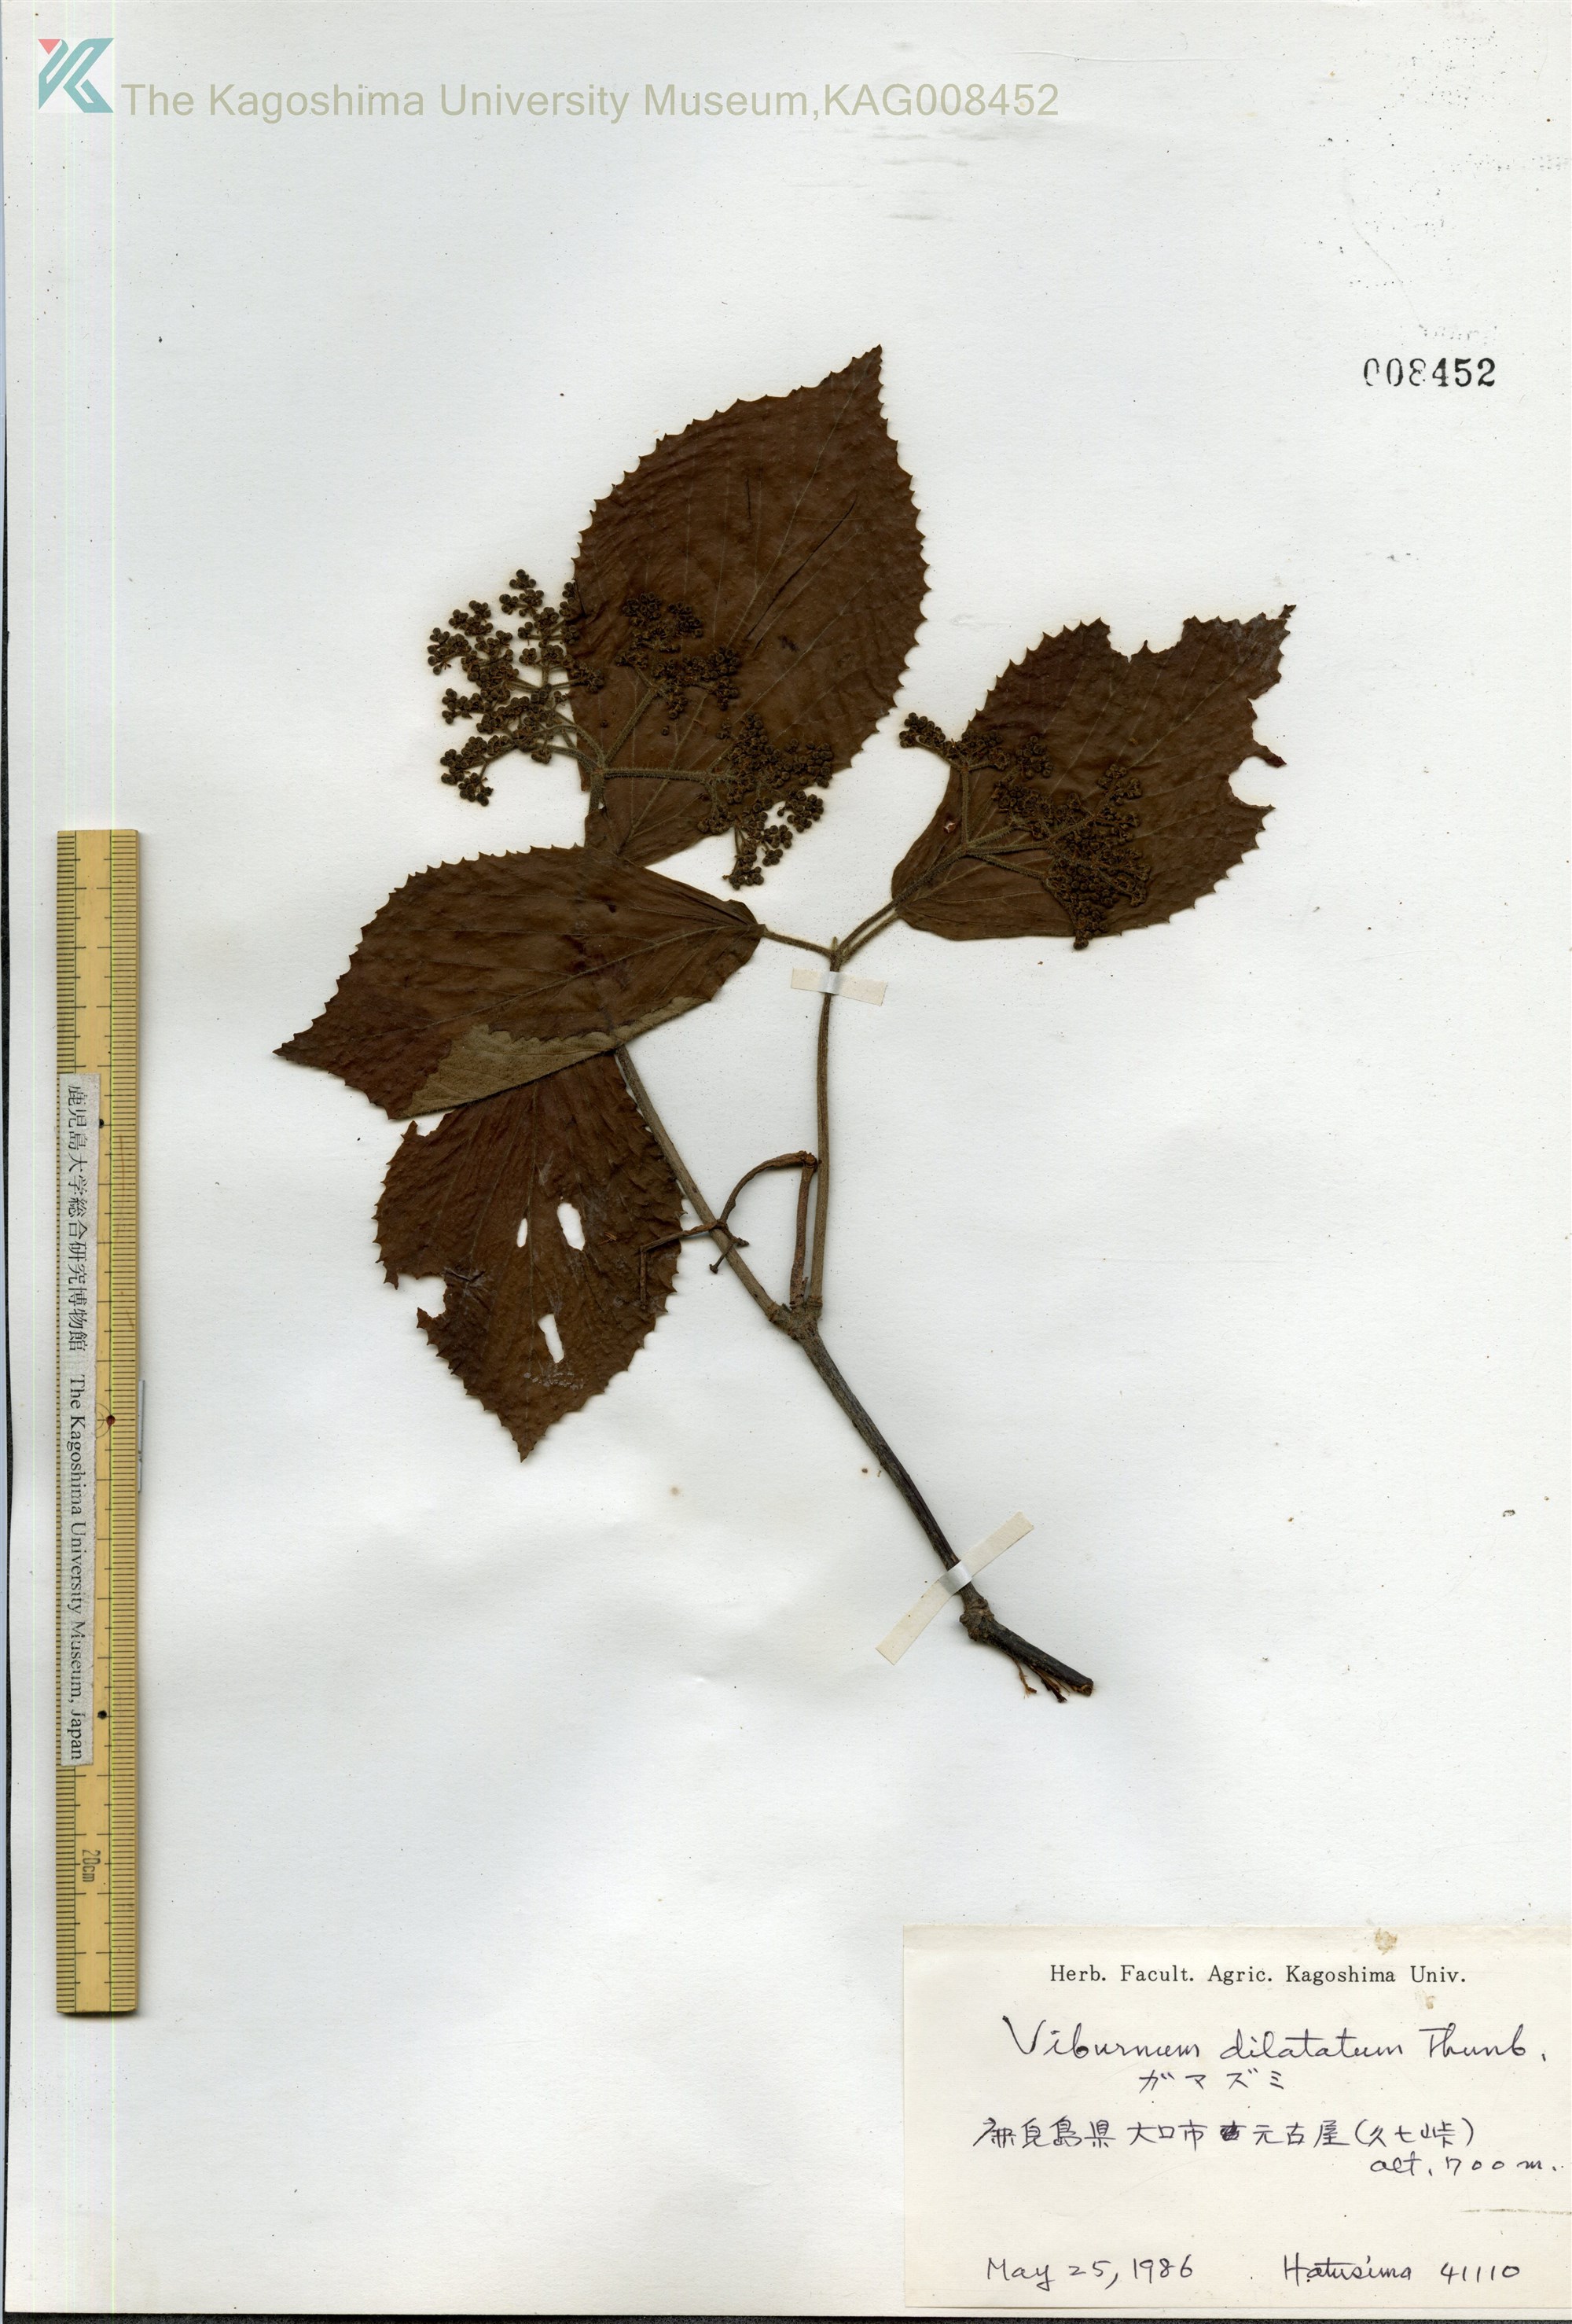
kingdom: Plantae
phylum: Tracheophyta
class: Magnoliopsida
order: Dipsacales
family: Viburnaceae
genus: Viburnum
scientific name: Viburnum dilatatum
